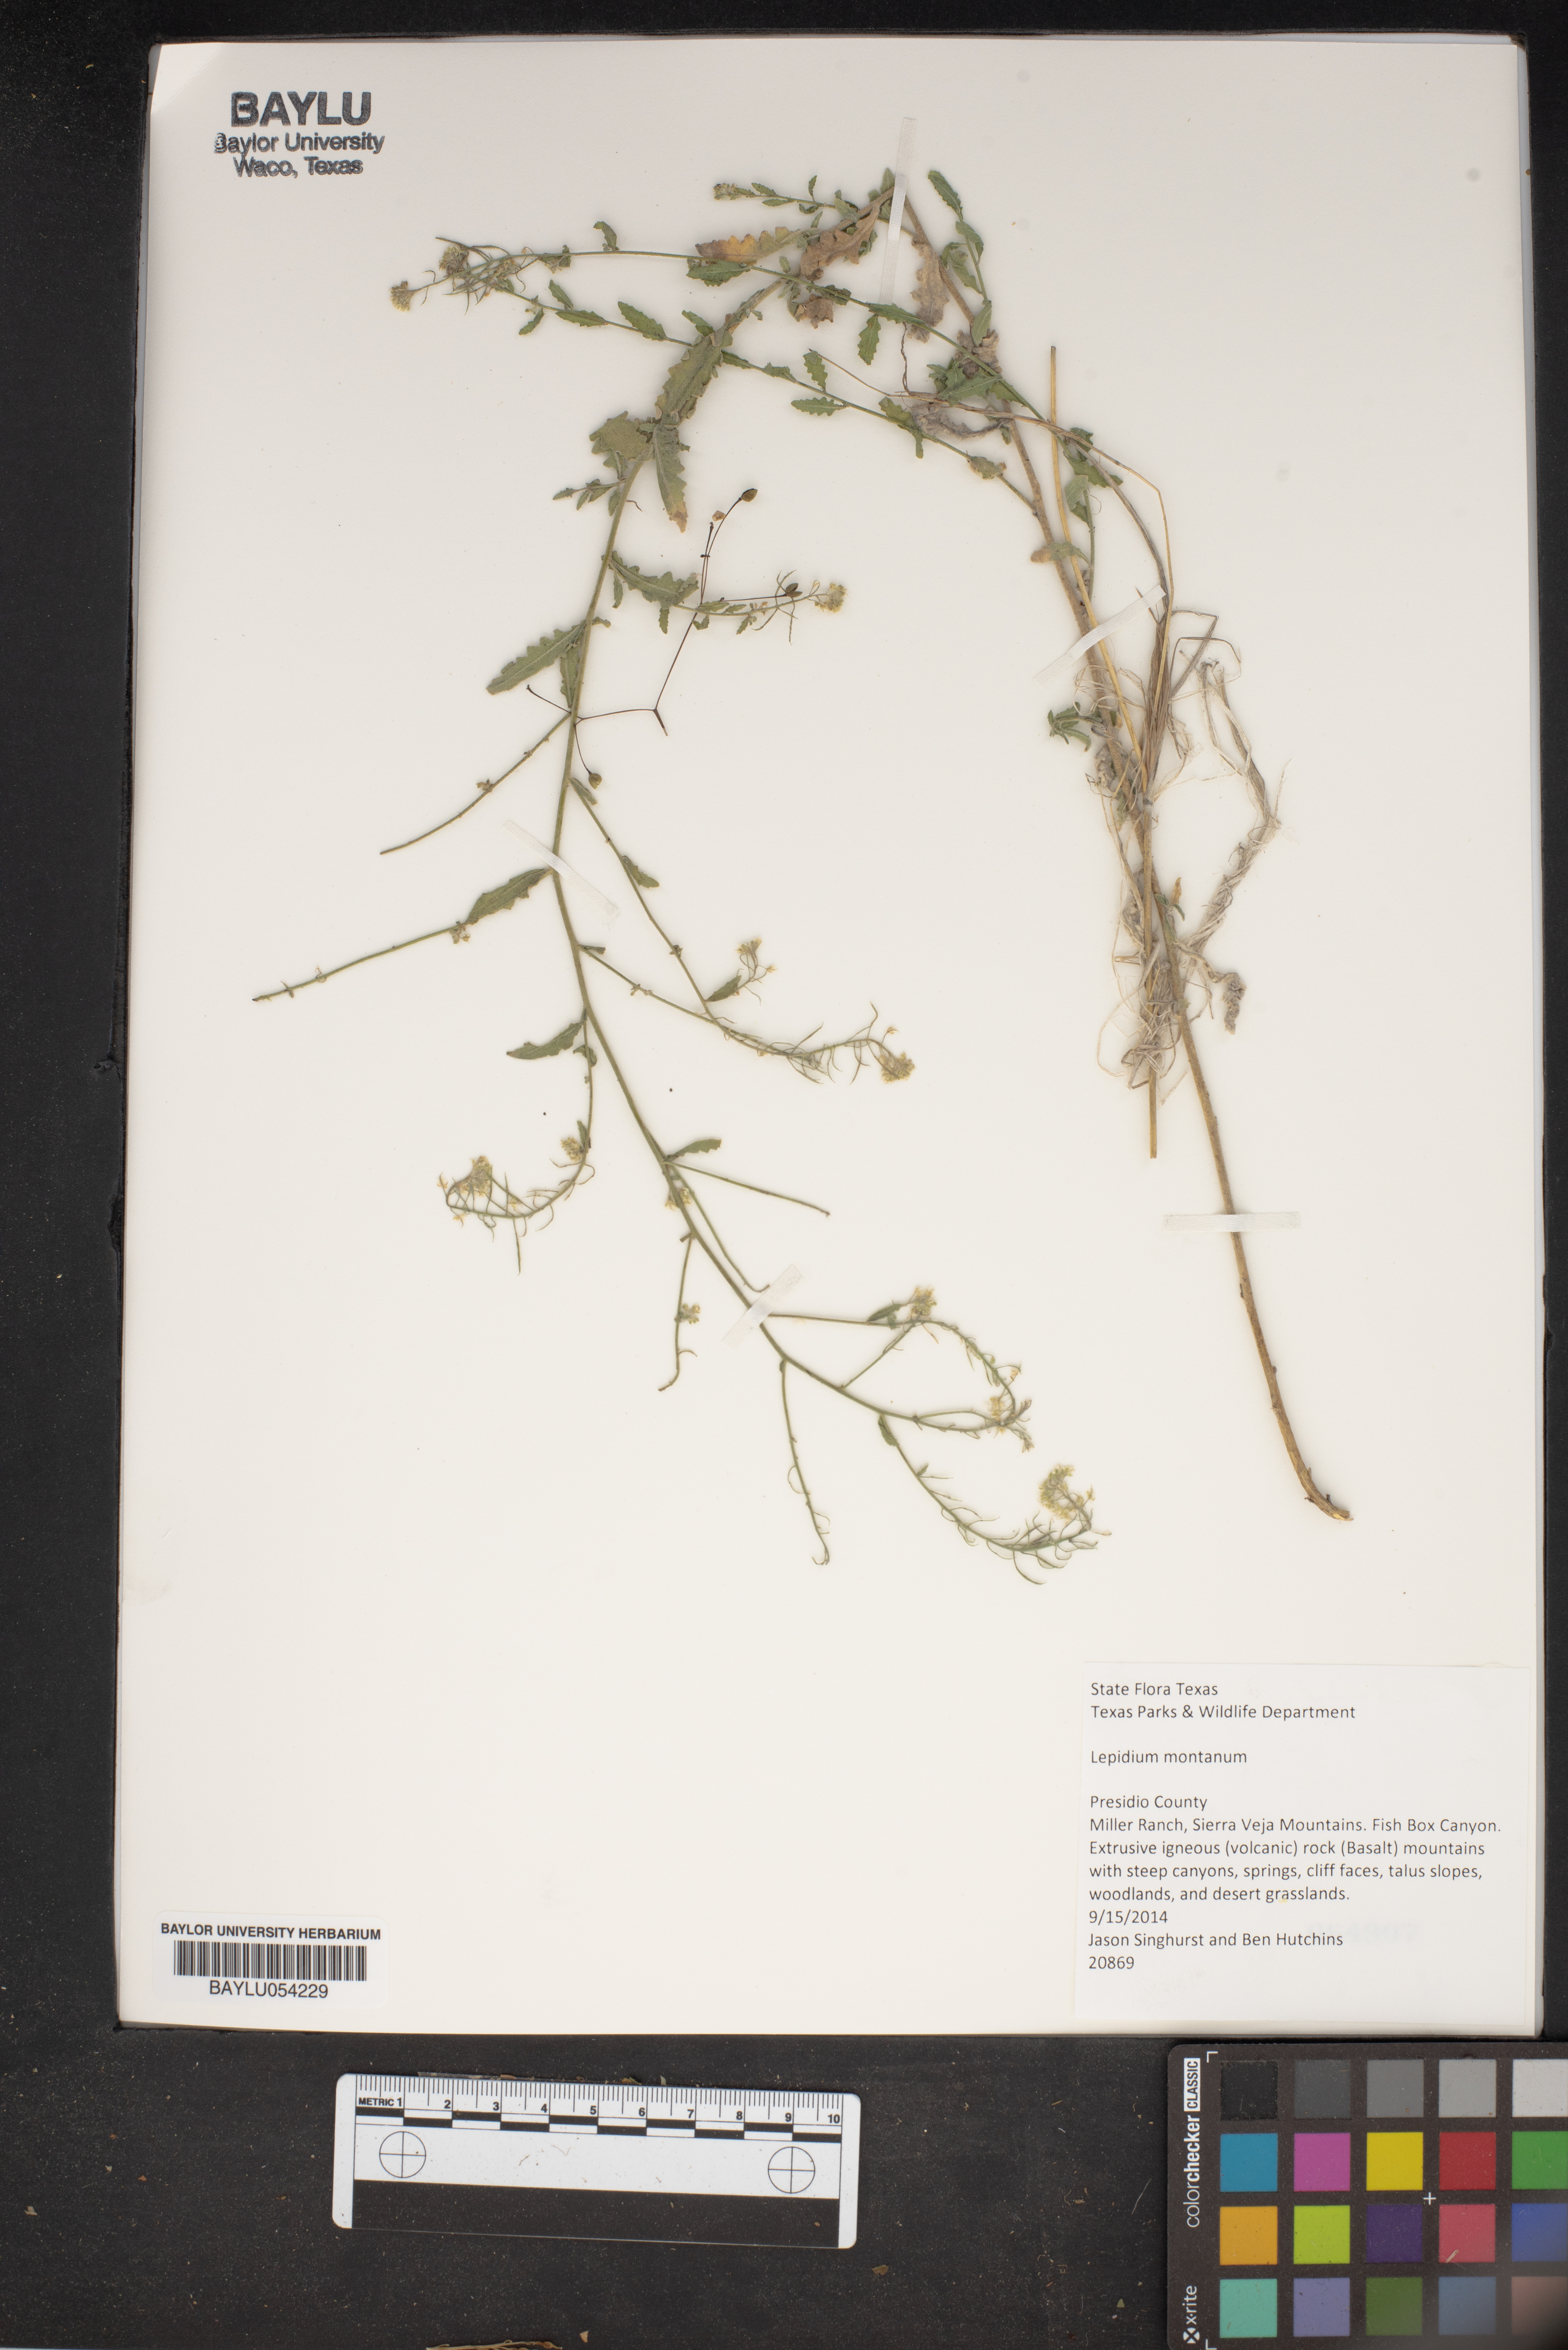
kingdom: Plantae
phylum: Tracheophyta
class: Magnoliopsida
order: Brassicales
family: Brassicaceae
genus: Lepidium
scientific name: Lepidium montanum
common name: Mountain pepperplant
